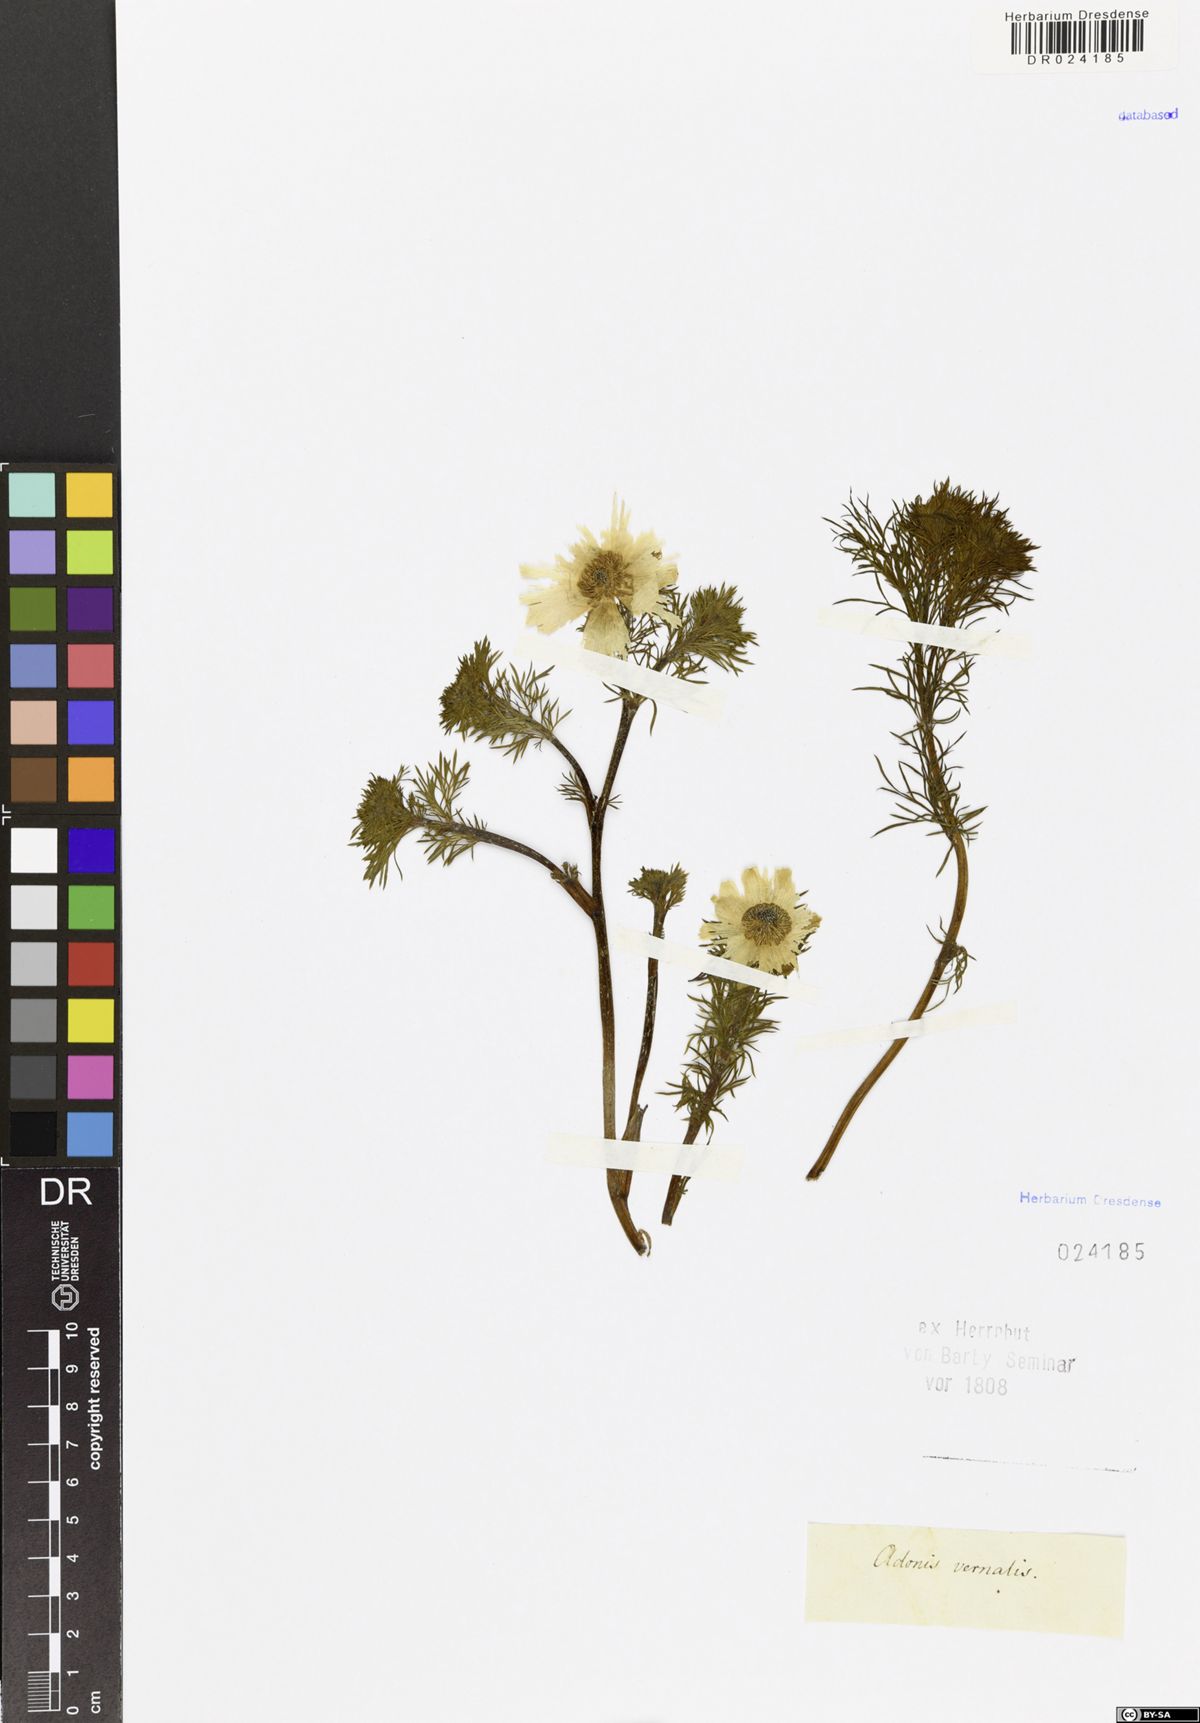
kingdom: Plantae
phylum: Tracheophyta
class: Magnoliopsida
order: Ranunculales
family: Ranunculaceae
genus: Adonis
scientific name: Adonis vernalis
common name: Yellow pheasants-eye
